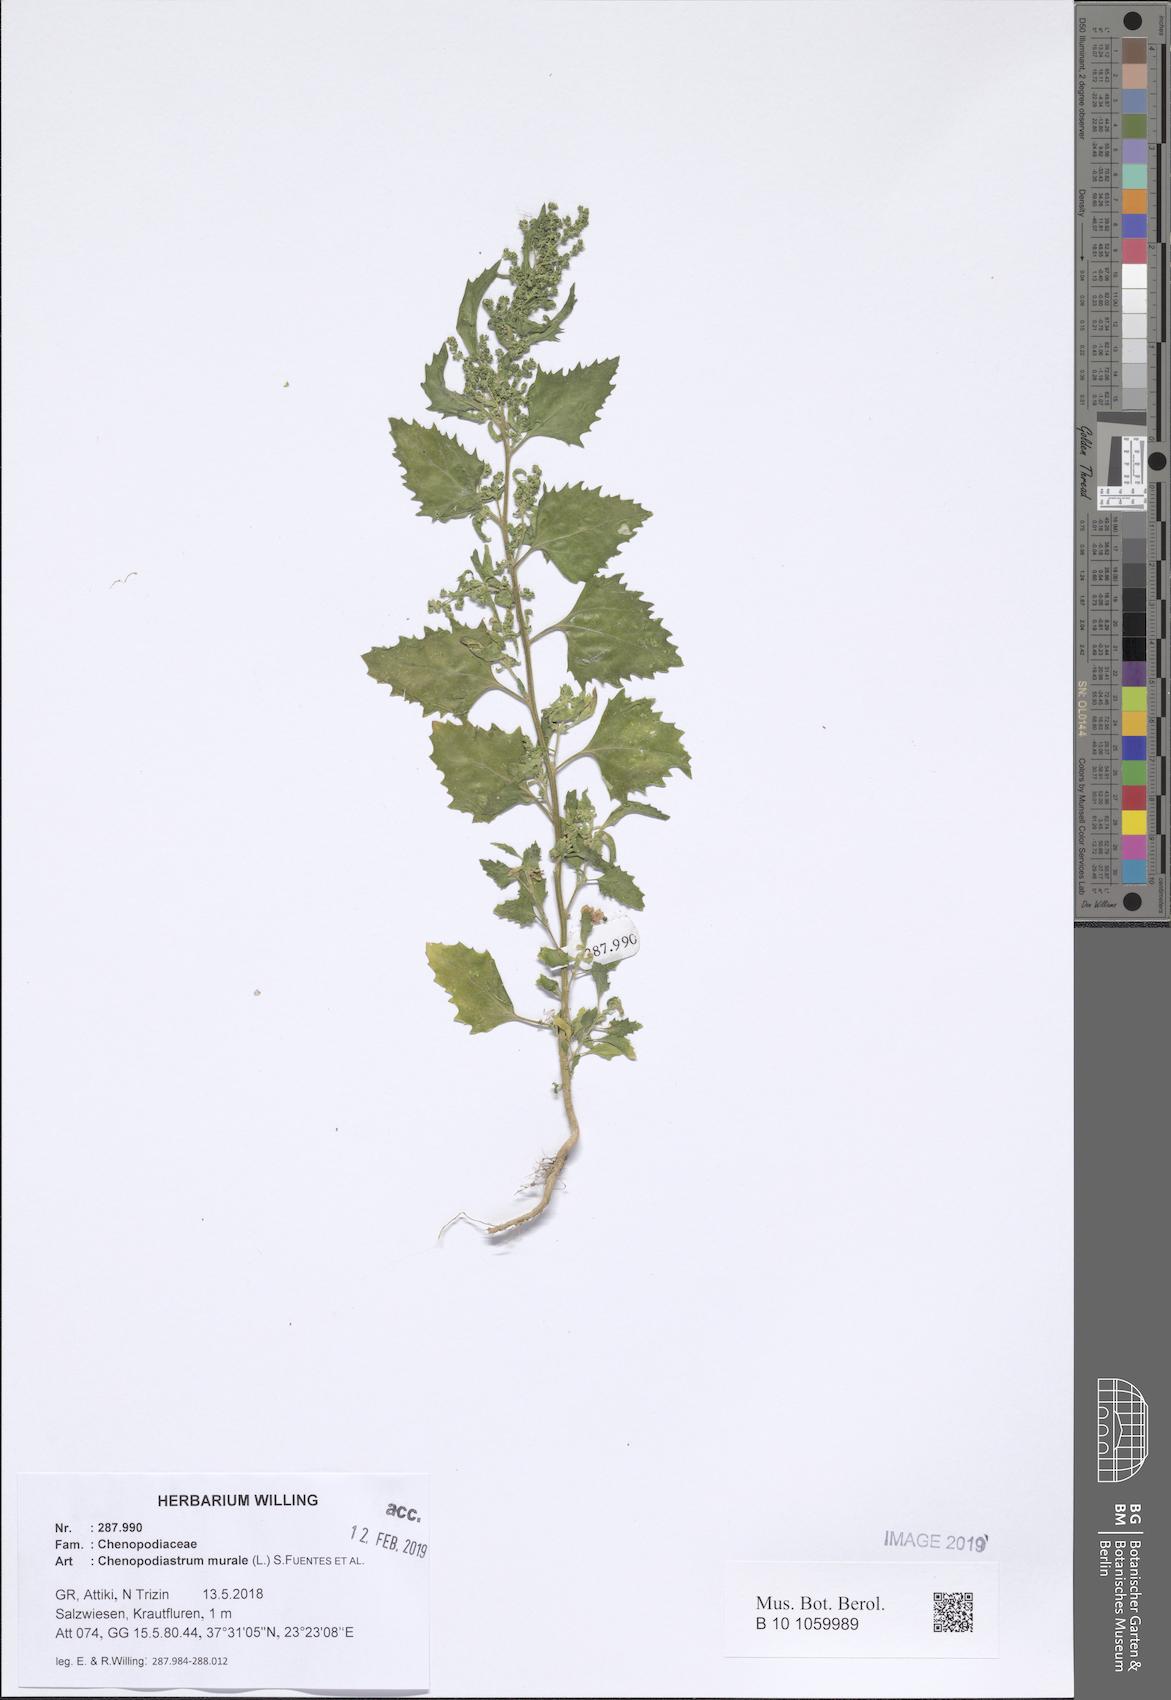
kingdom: Plantae
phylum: Tracheophyta
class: Magnoliopsida
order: Caryophyllales
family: Amaranthaceae
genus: Chenopodiastrum
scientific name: Chenopodiastrum murale
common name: Sowbane
